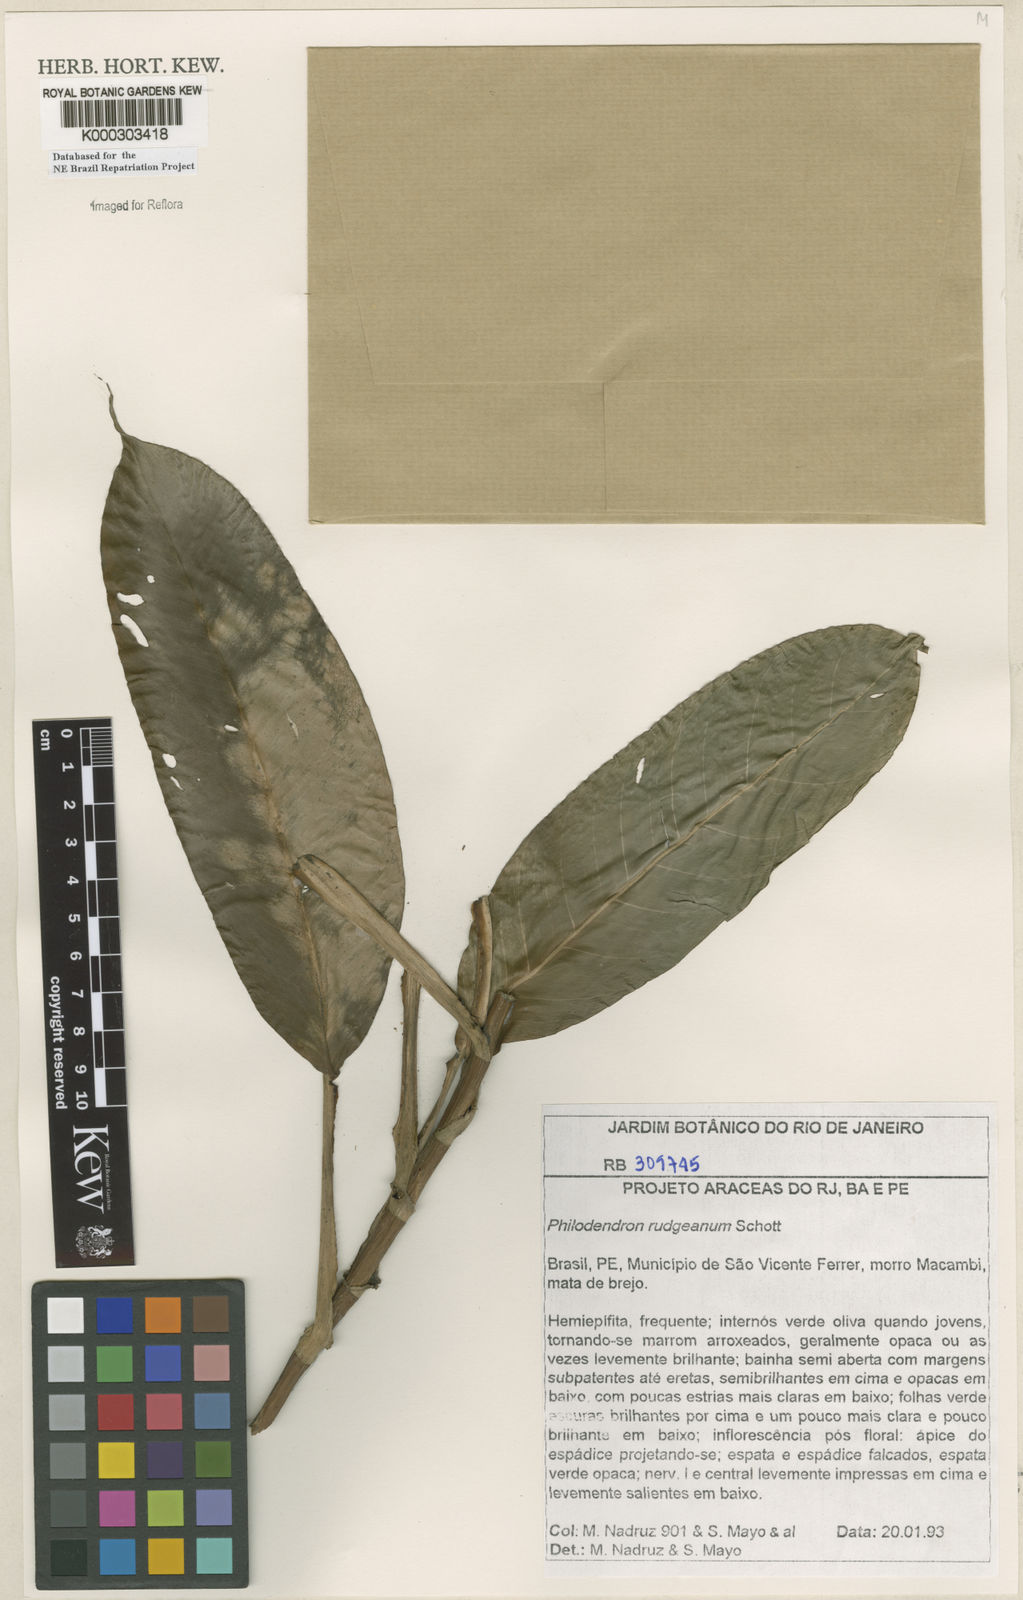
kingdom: Plantae
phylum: Tracheophyta
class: Liliopsida
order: Alismatales
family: Araceae
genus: Philodendron
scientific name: Philodendron rudgeanum
